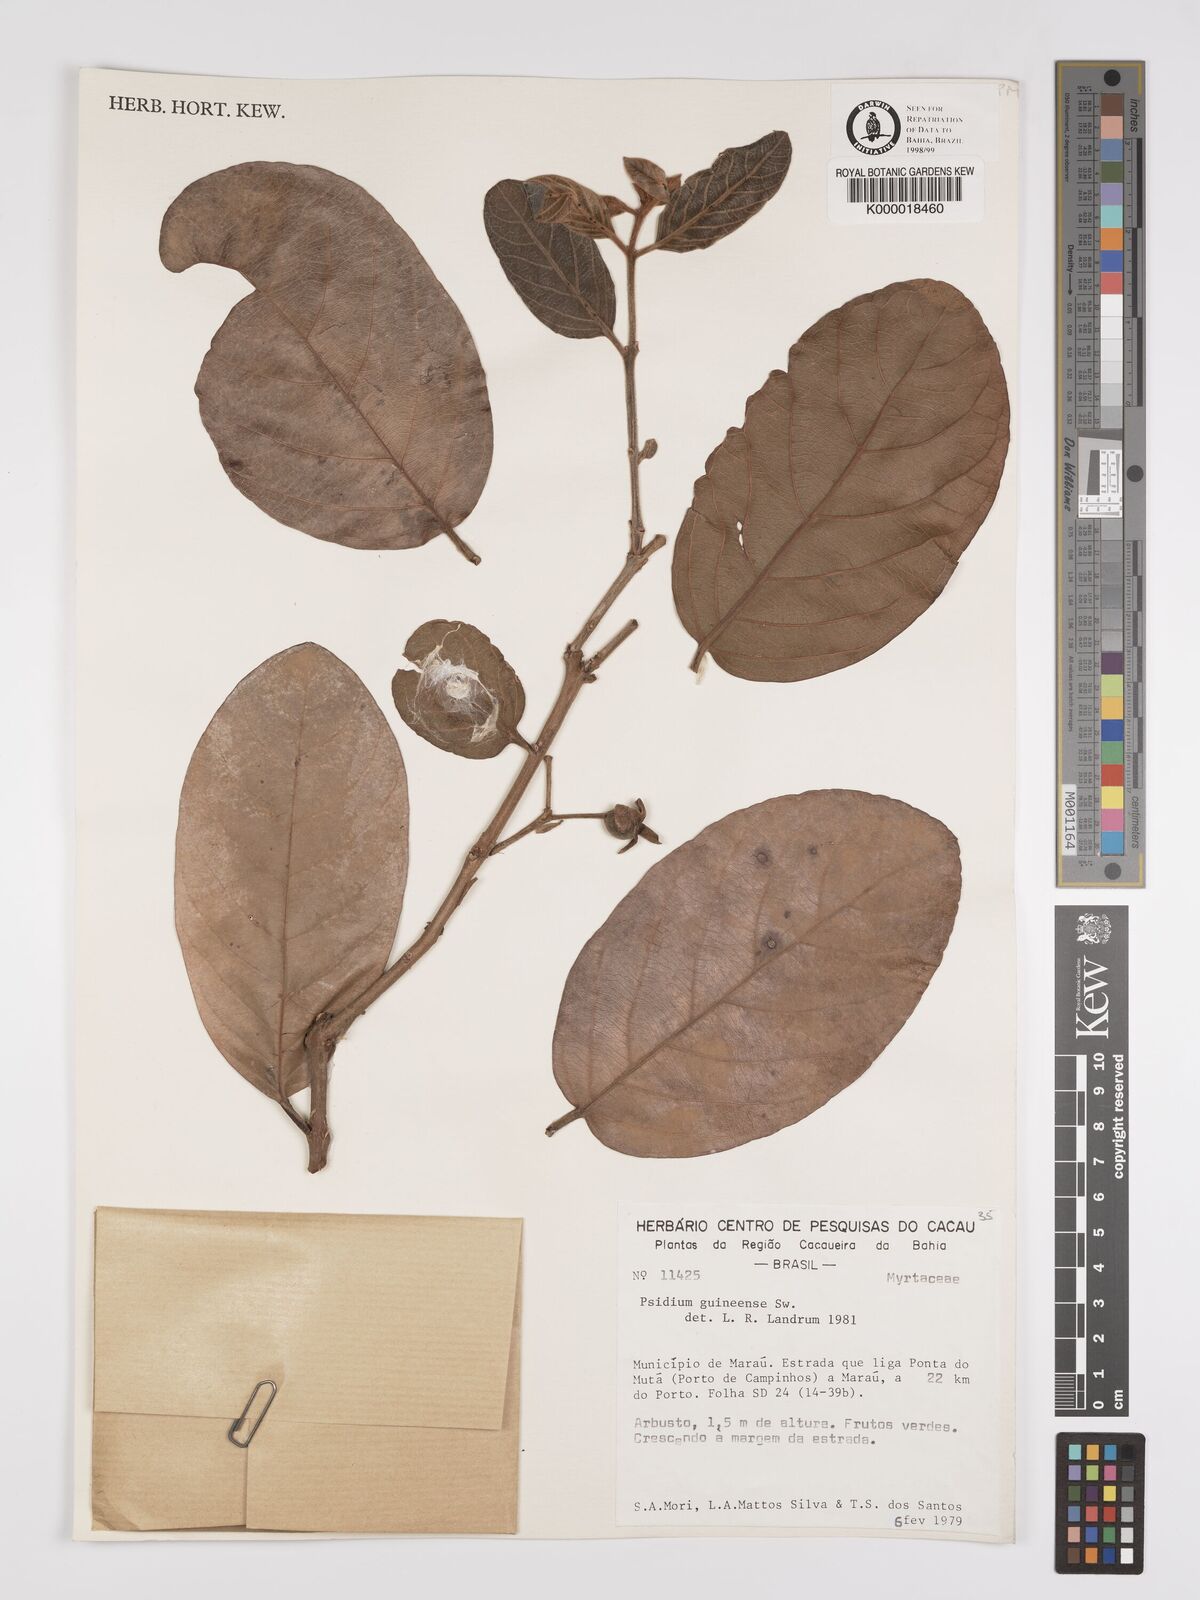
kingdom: Plantae
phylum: Tracheophyta
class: Magnoliopsida
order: Myrtales
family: Myrtaceae
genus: Psidium
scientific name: Psidium guineense
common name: Brazilian guava
